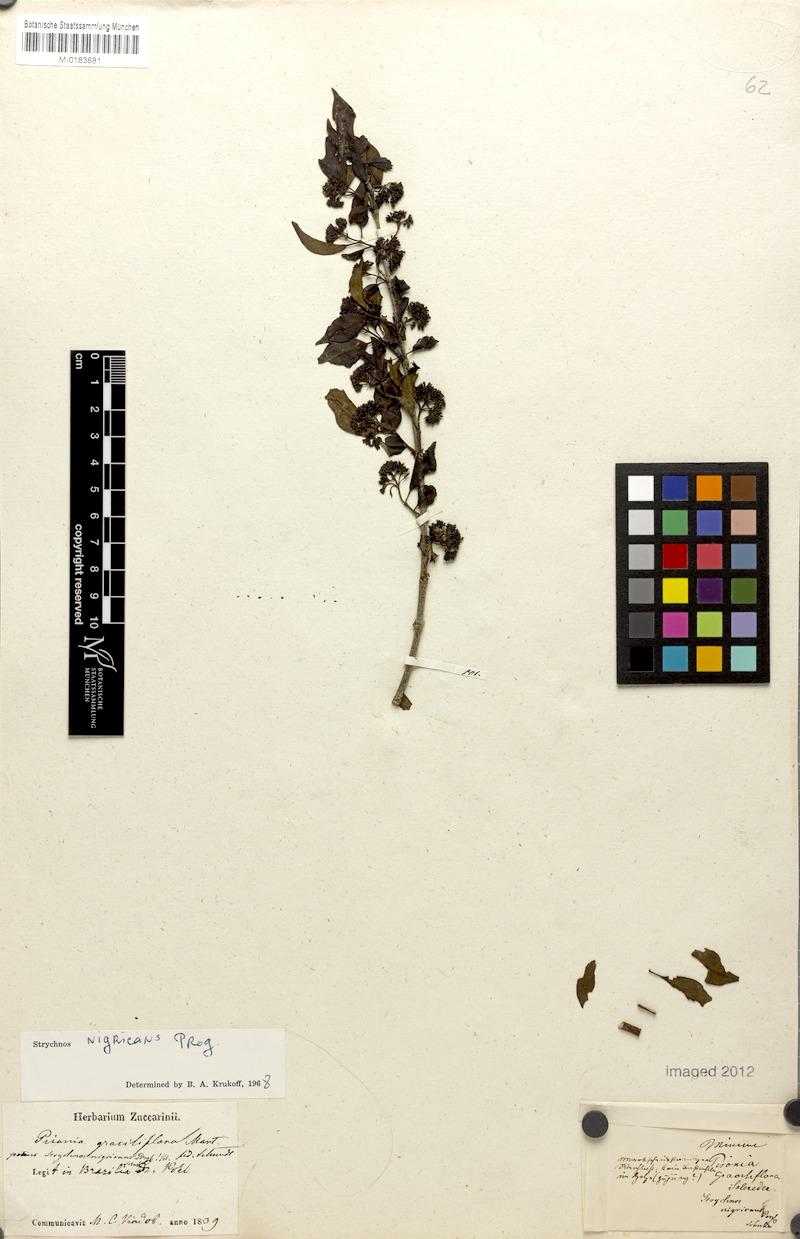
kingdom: Plantae
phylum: Tracheophyta
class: Magnoliopsida
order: Gentianales
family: Loganiaceae
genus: Strychnos
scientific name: Strychnos nigricans
